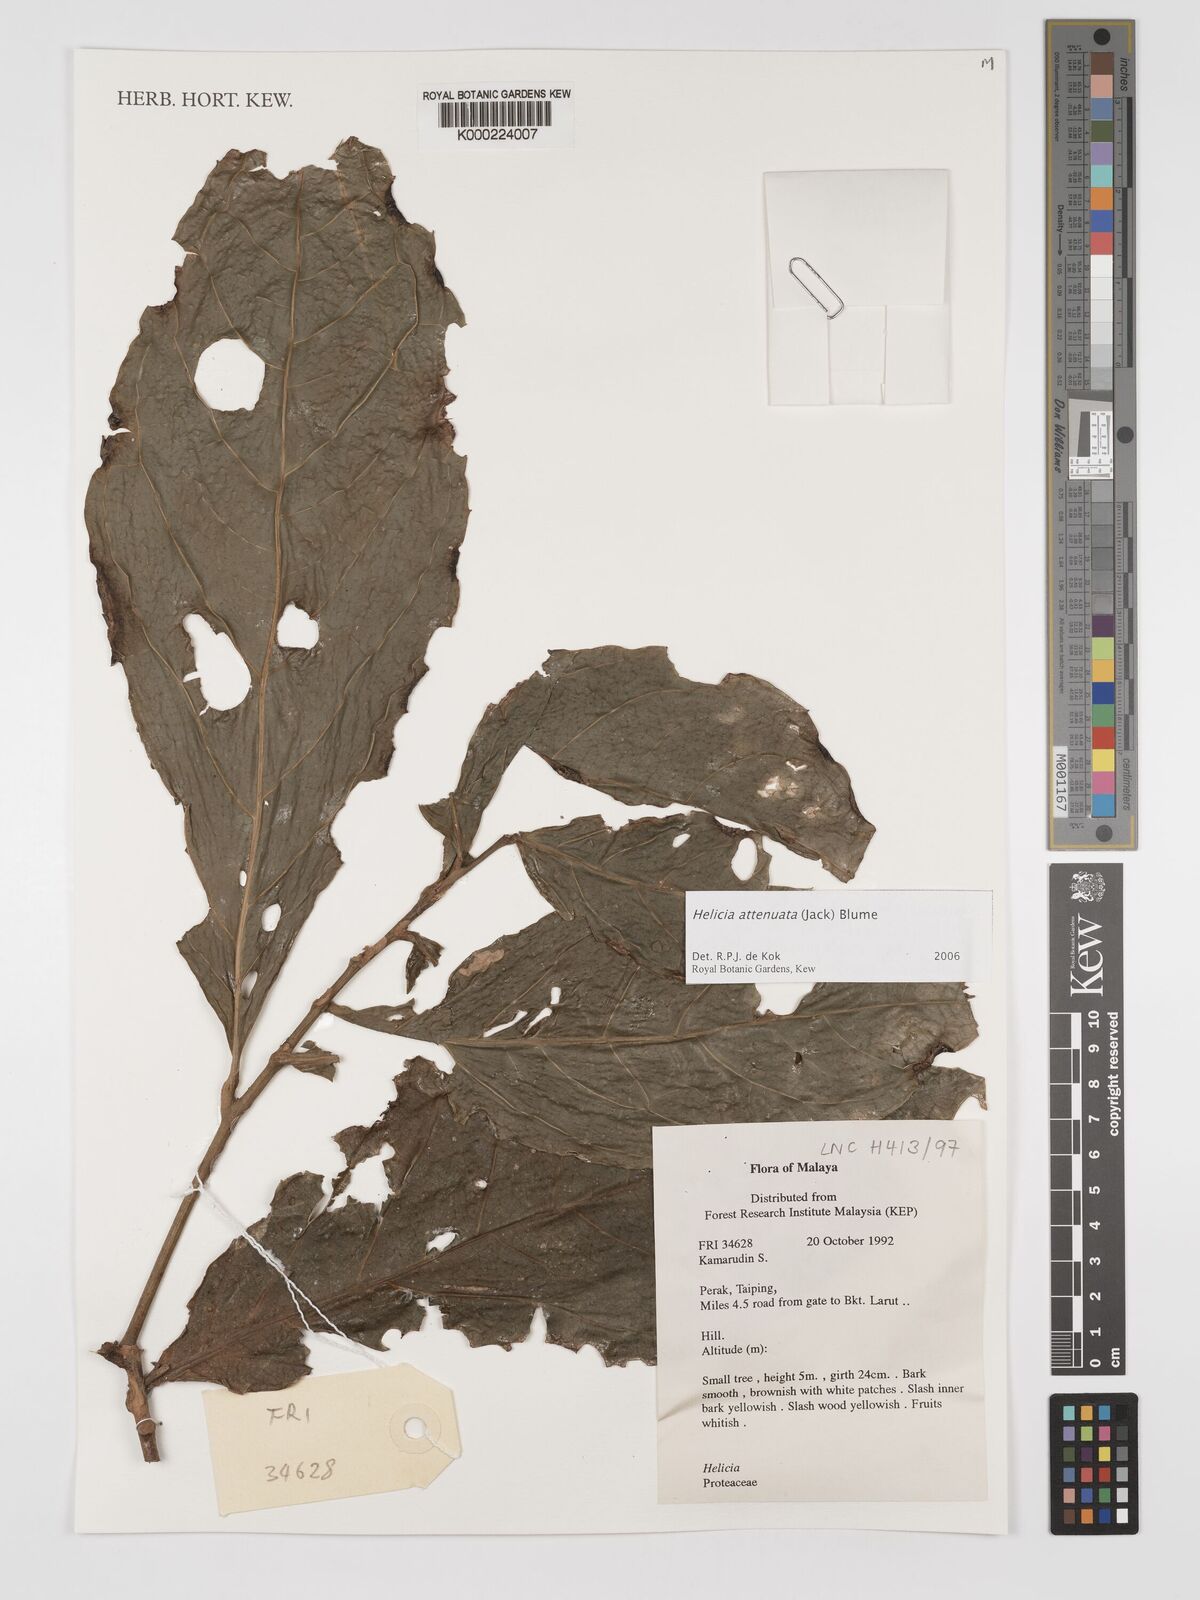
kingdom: Plantae
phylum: Tracheophyta
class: Magnoliopsida
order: Proteales
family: Proteaceae
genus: Helicia
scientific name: Helicia attenuata
